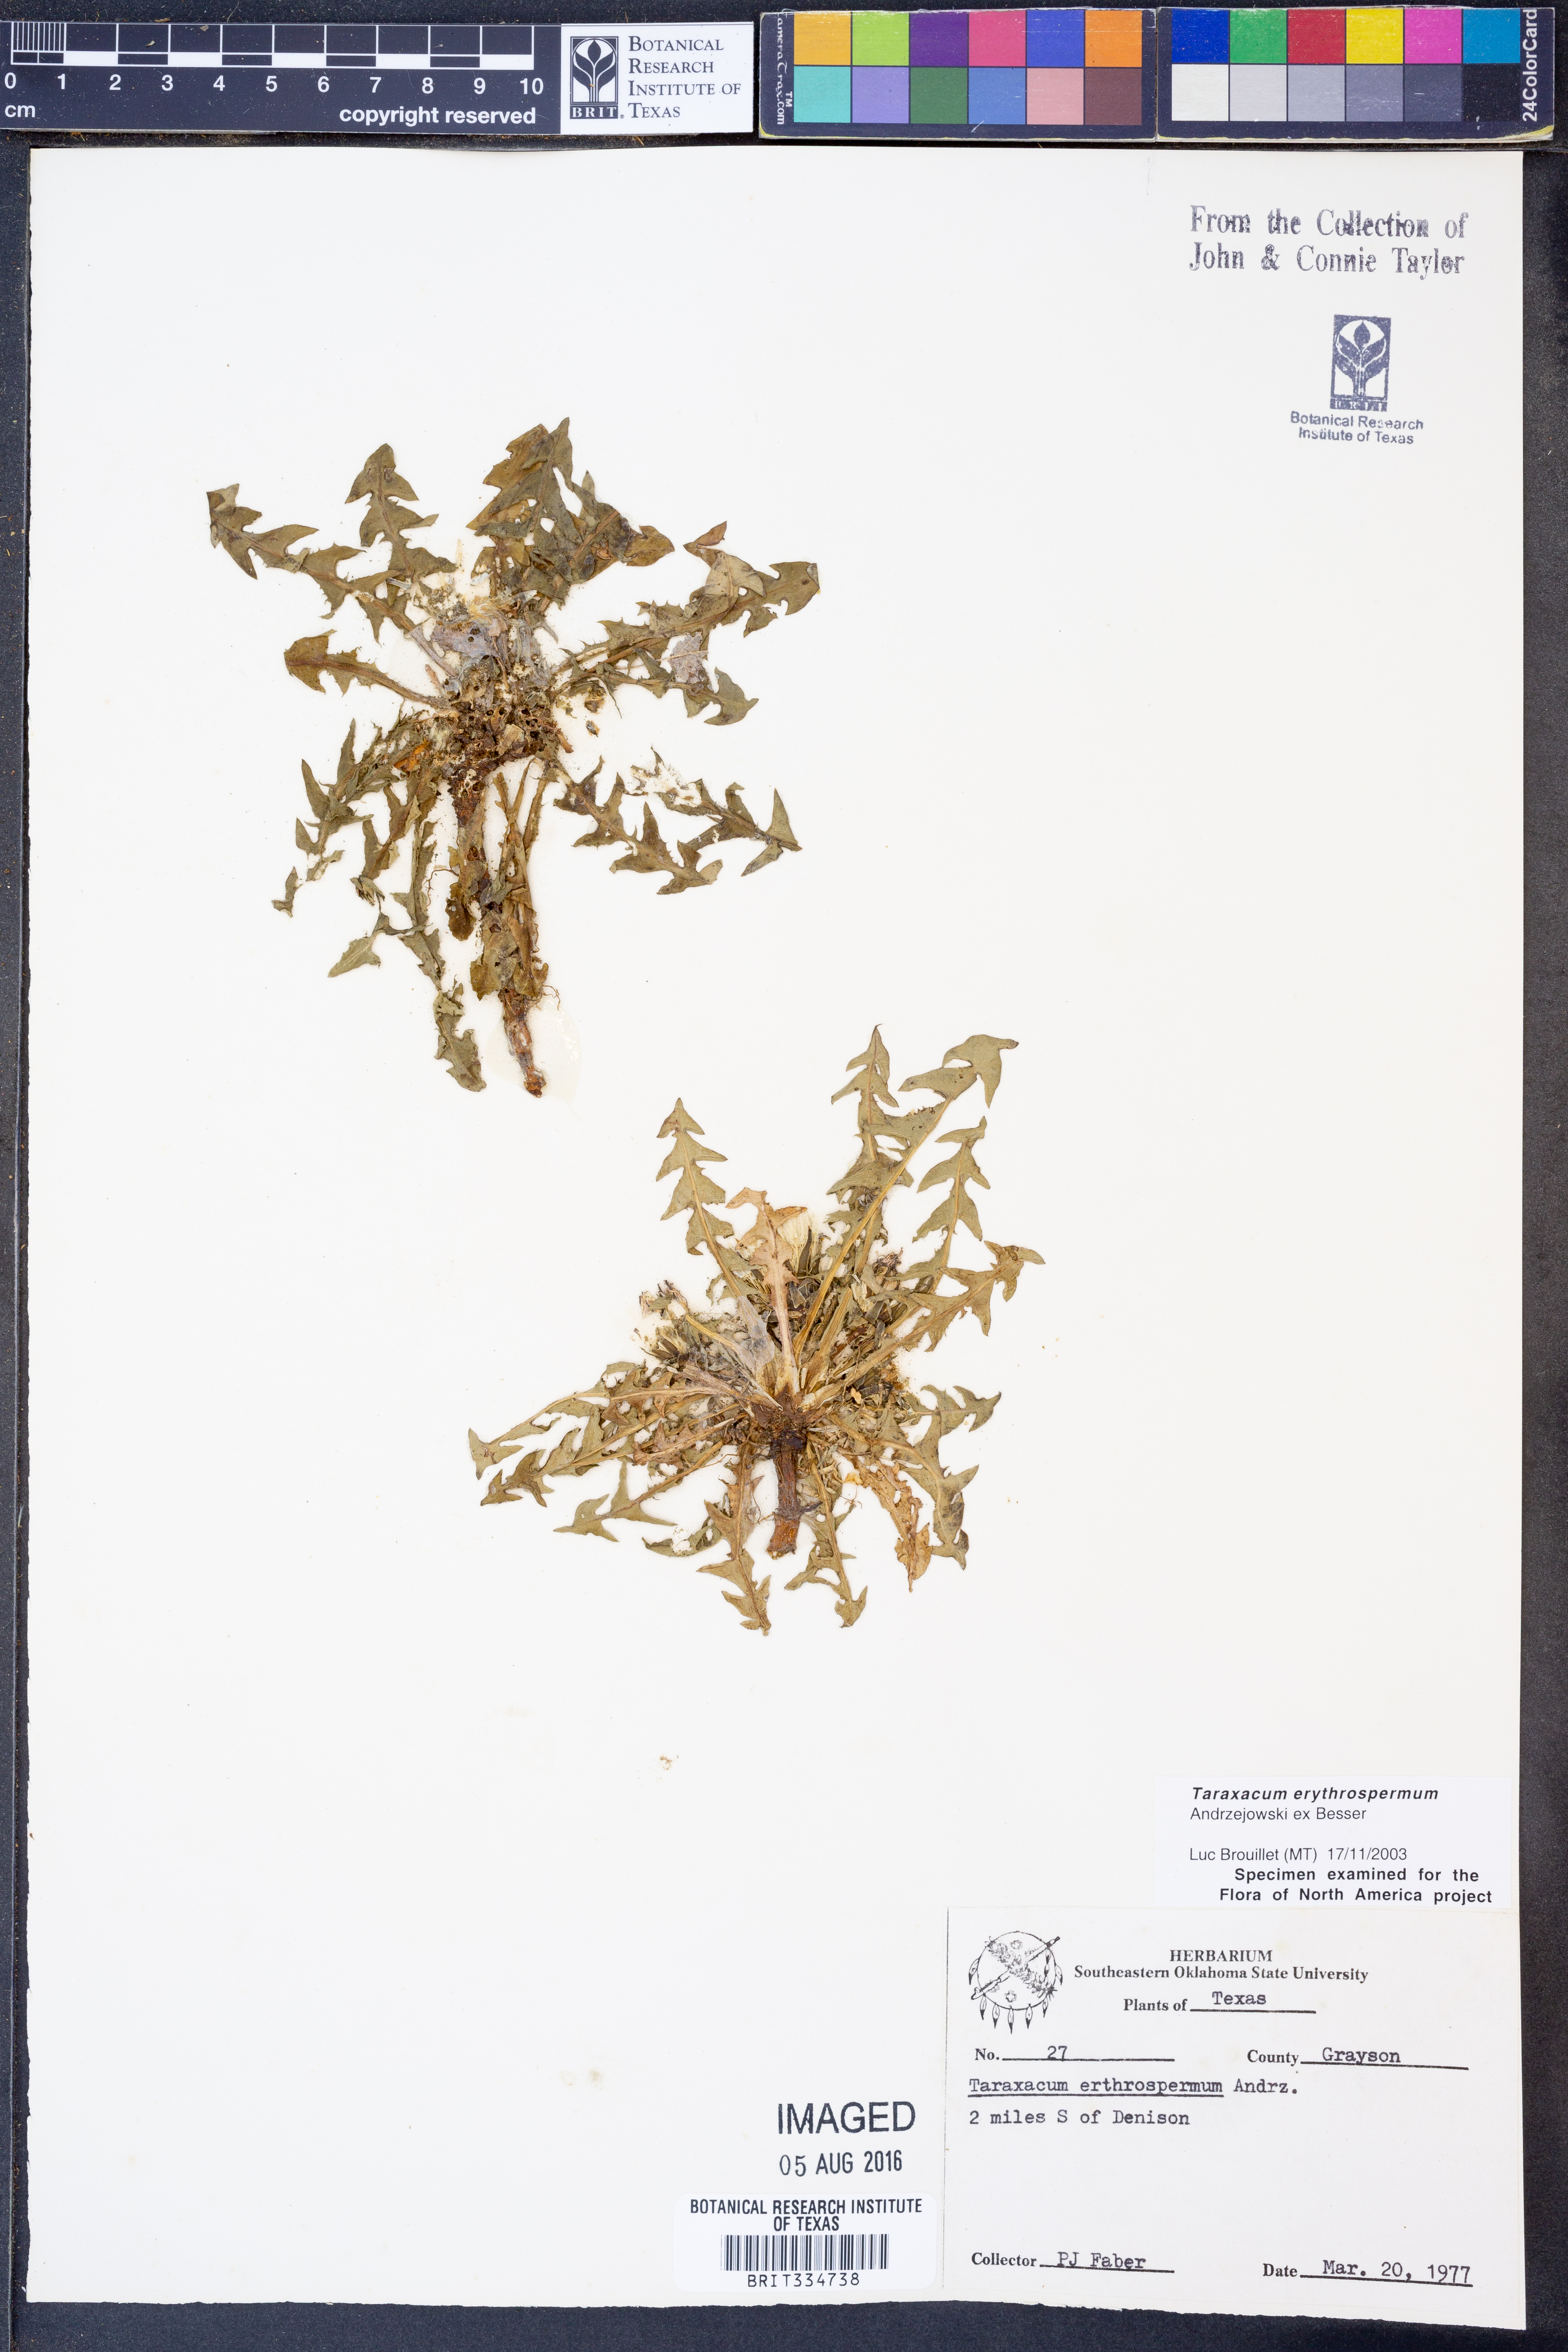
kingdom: Plantae
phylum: Tracheophyta
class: Magnoliopsida
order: Asterales
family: Asteraceae
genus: Taraxacum
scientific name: Taraxacum erythrospermum
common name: Rock dandelion
